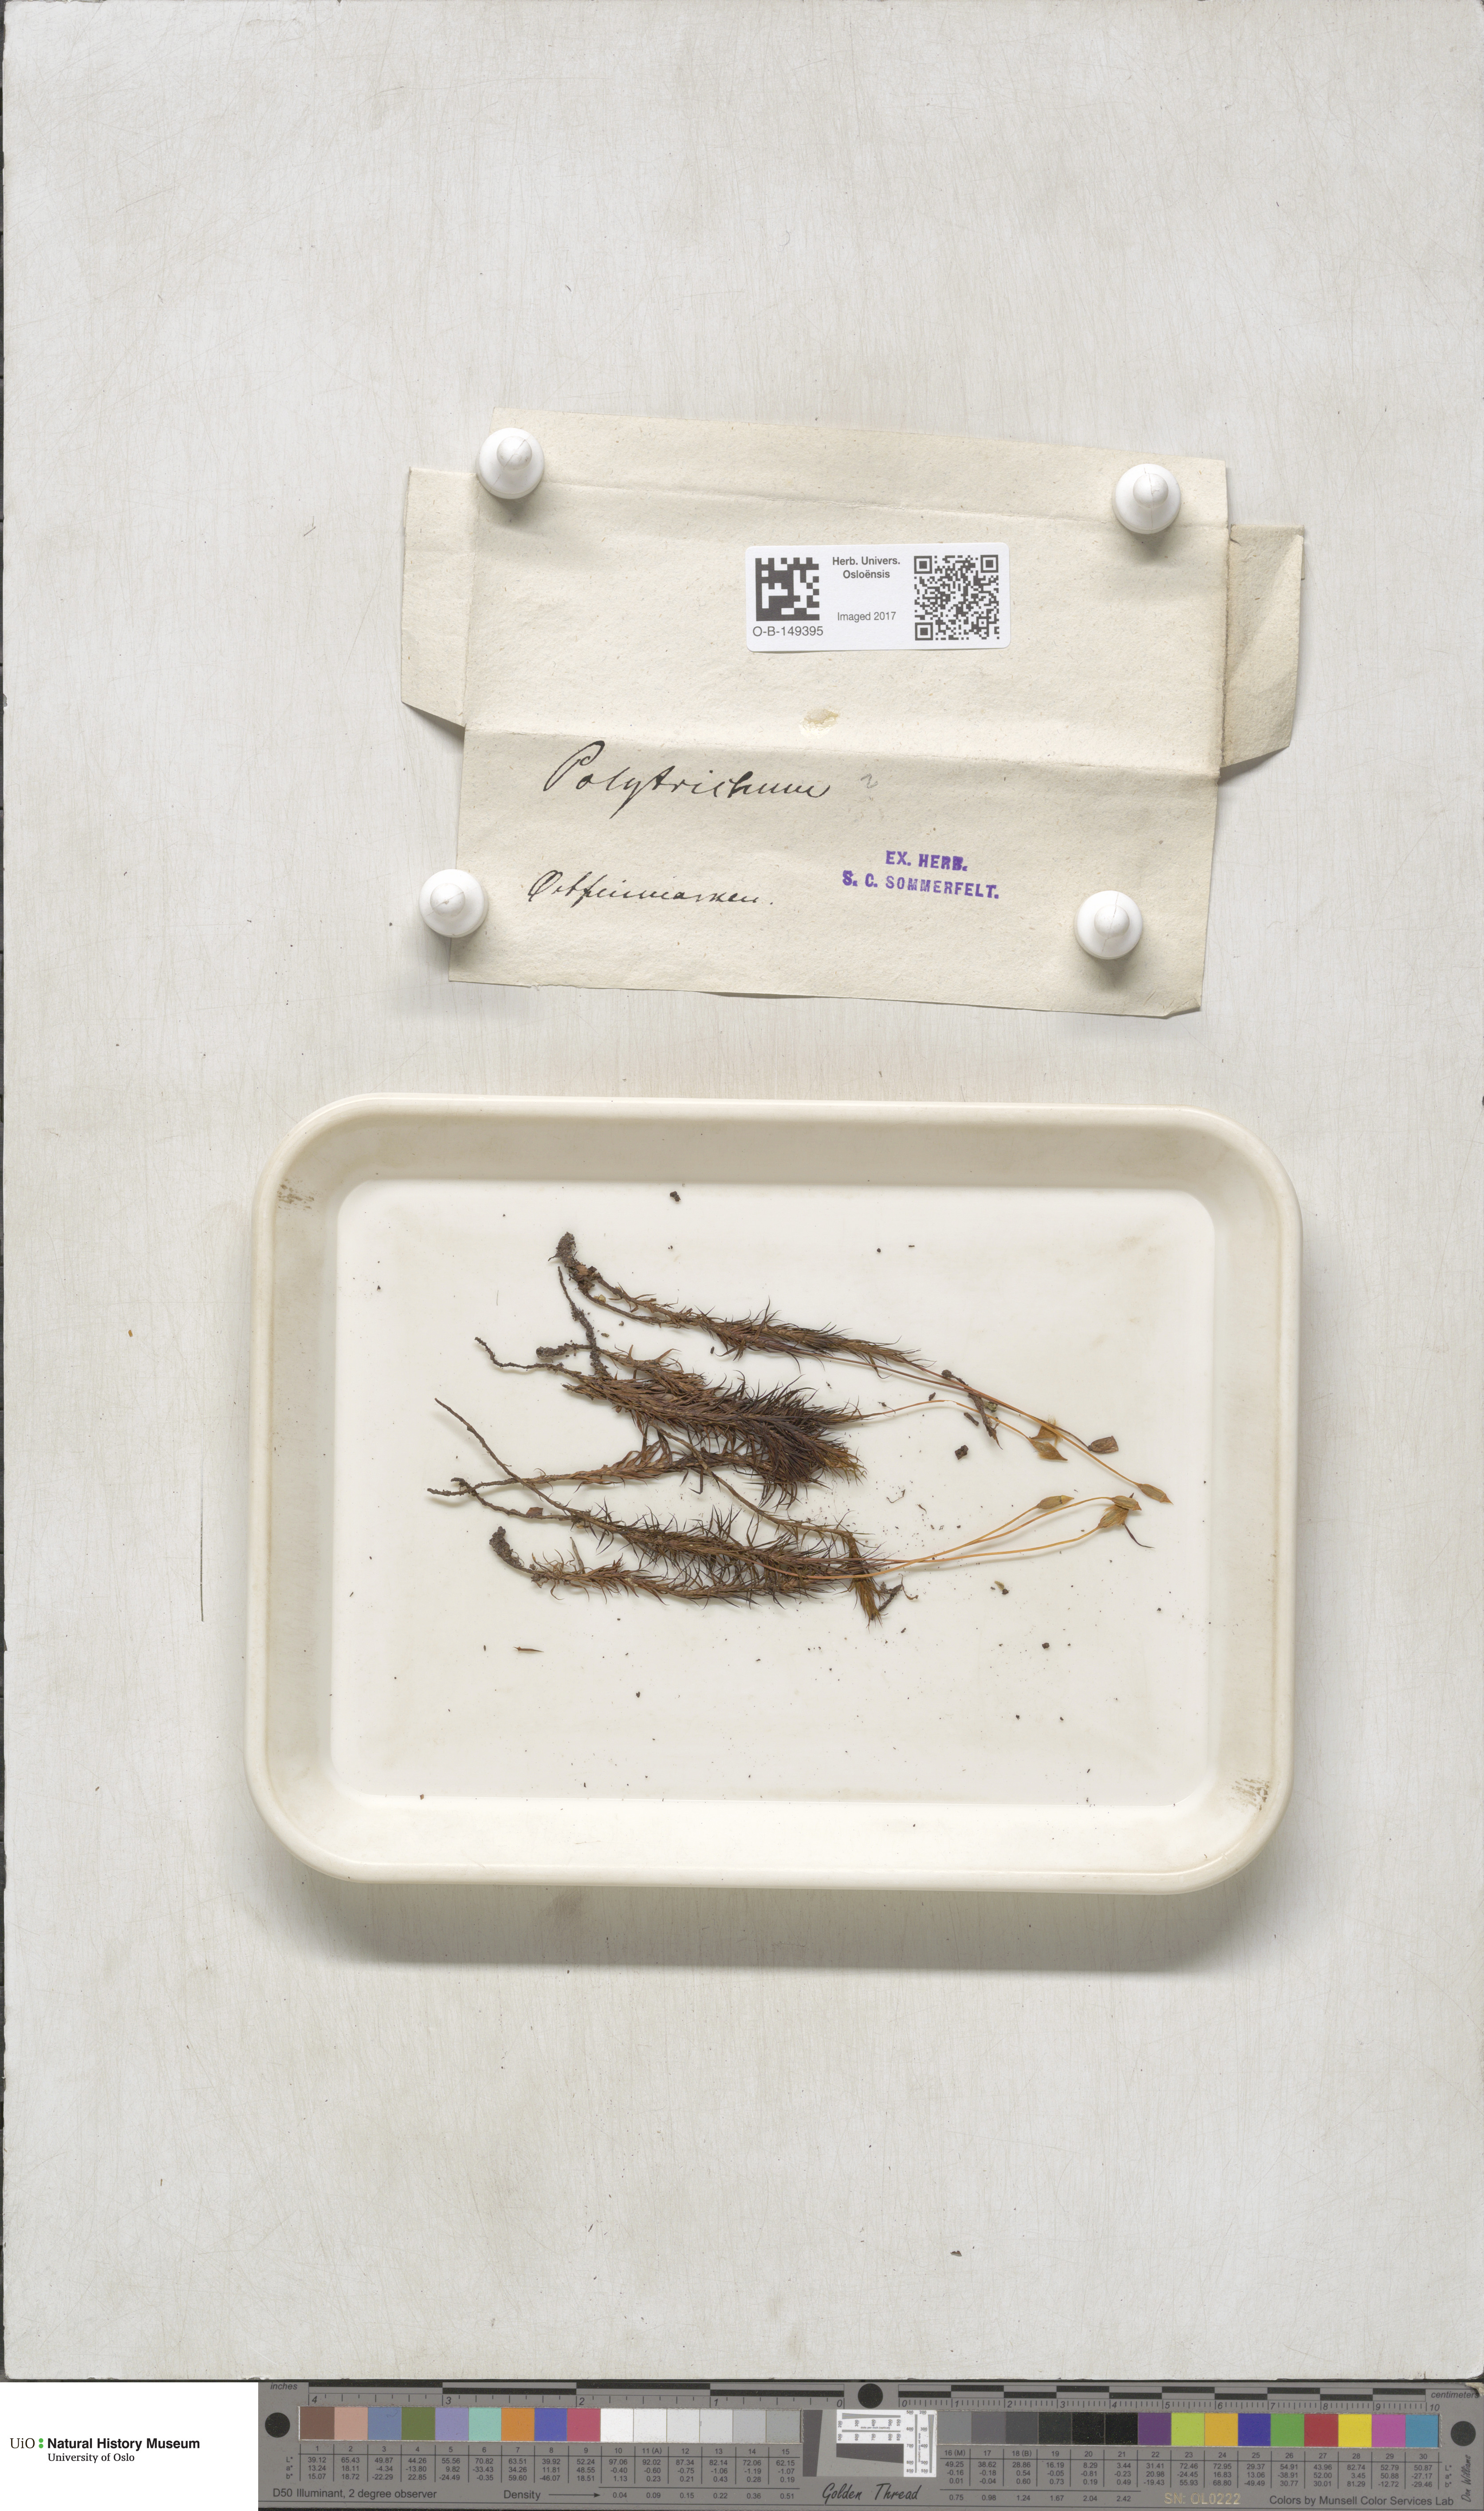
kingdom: Plantae
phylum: Bryophyta
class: Polytrichopsida
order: Polytrichales
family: Polytrichaceae
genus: Polytrichum
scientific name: Polytrichum formosum
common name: Bank haircap moss
